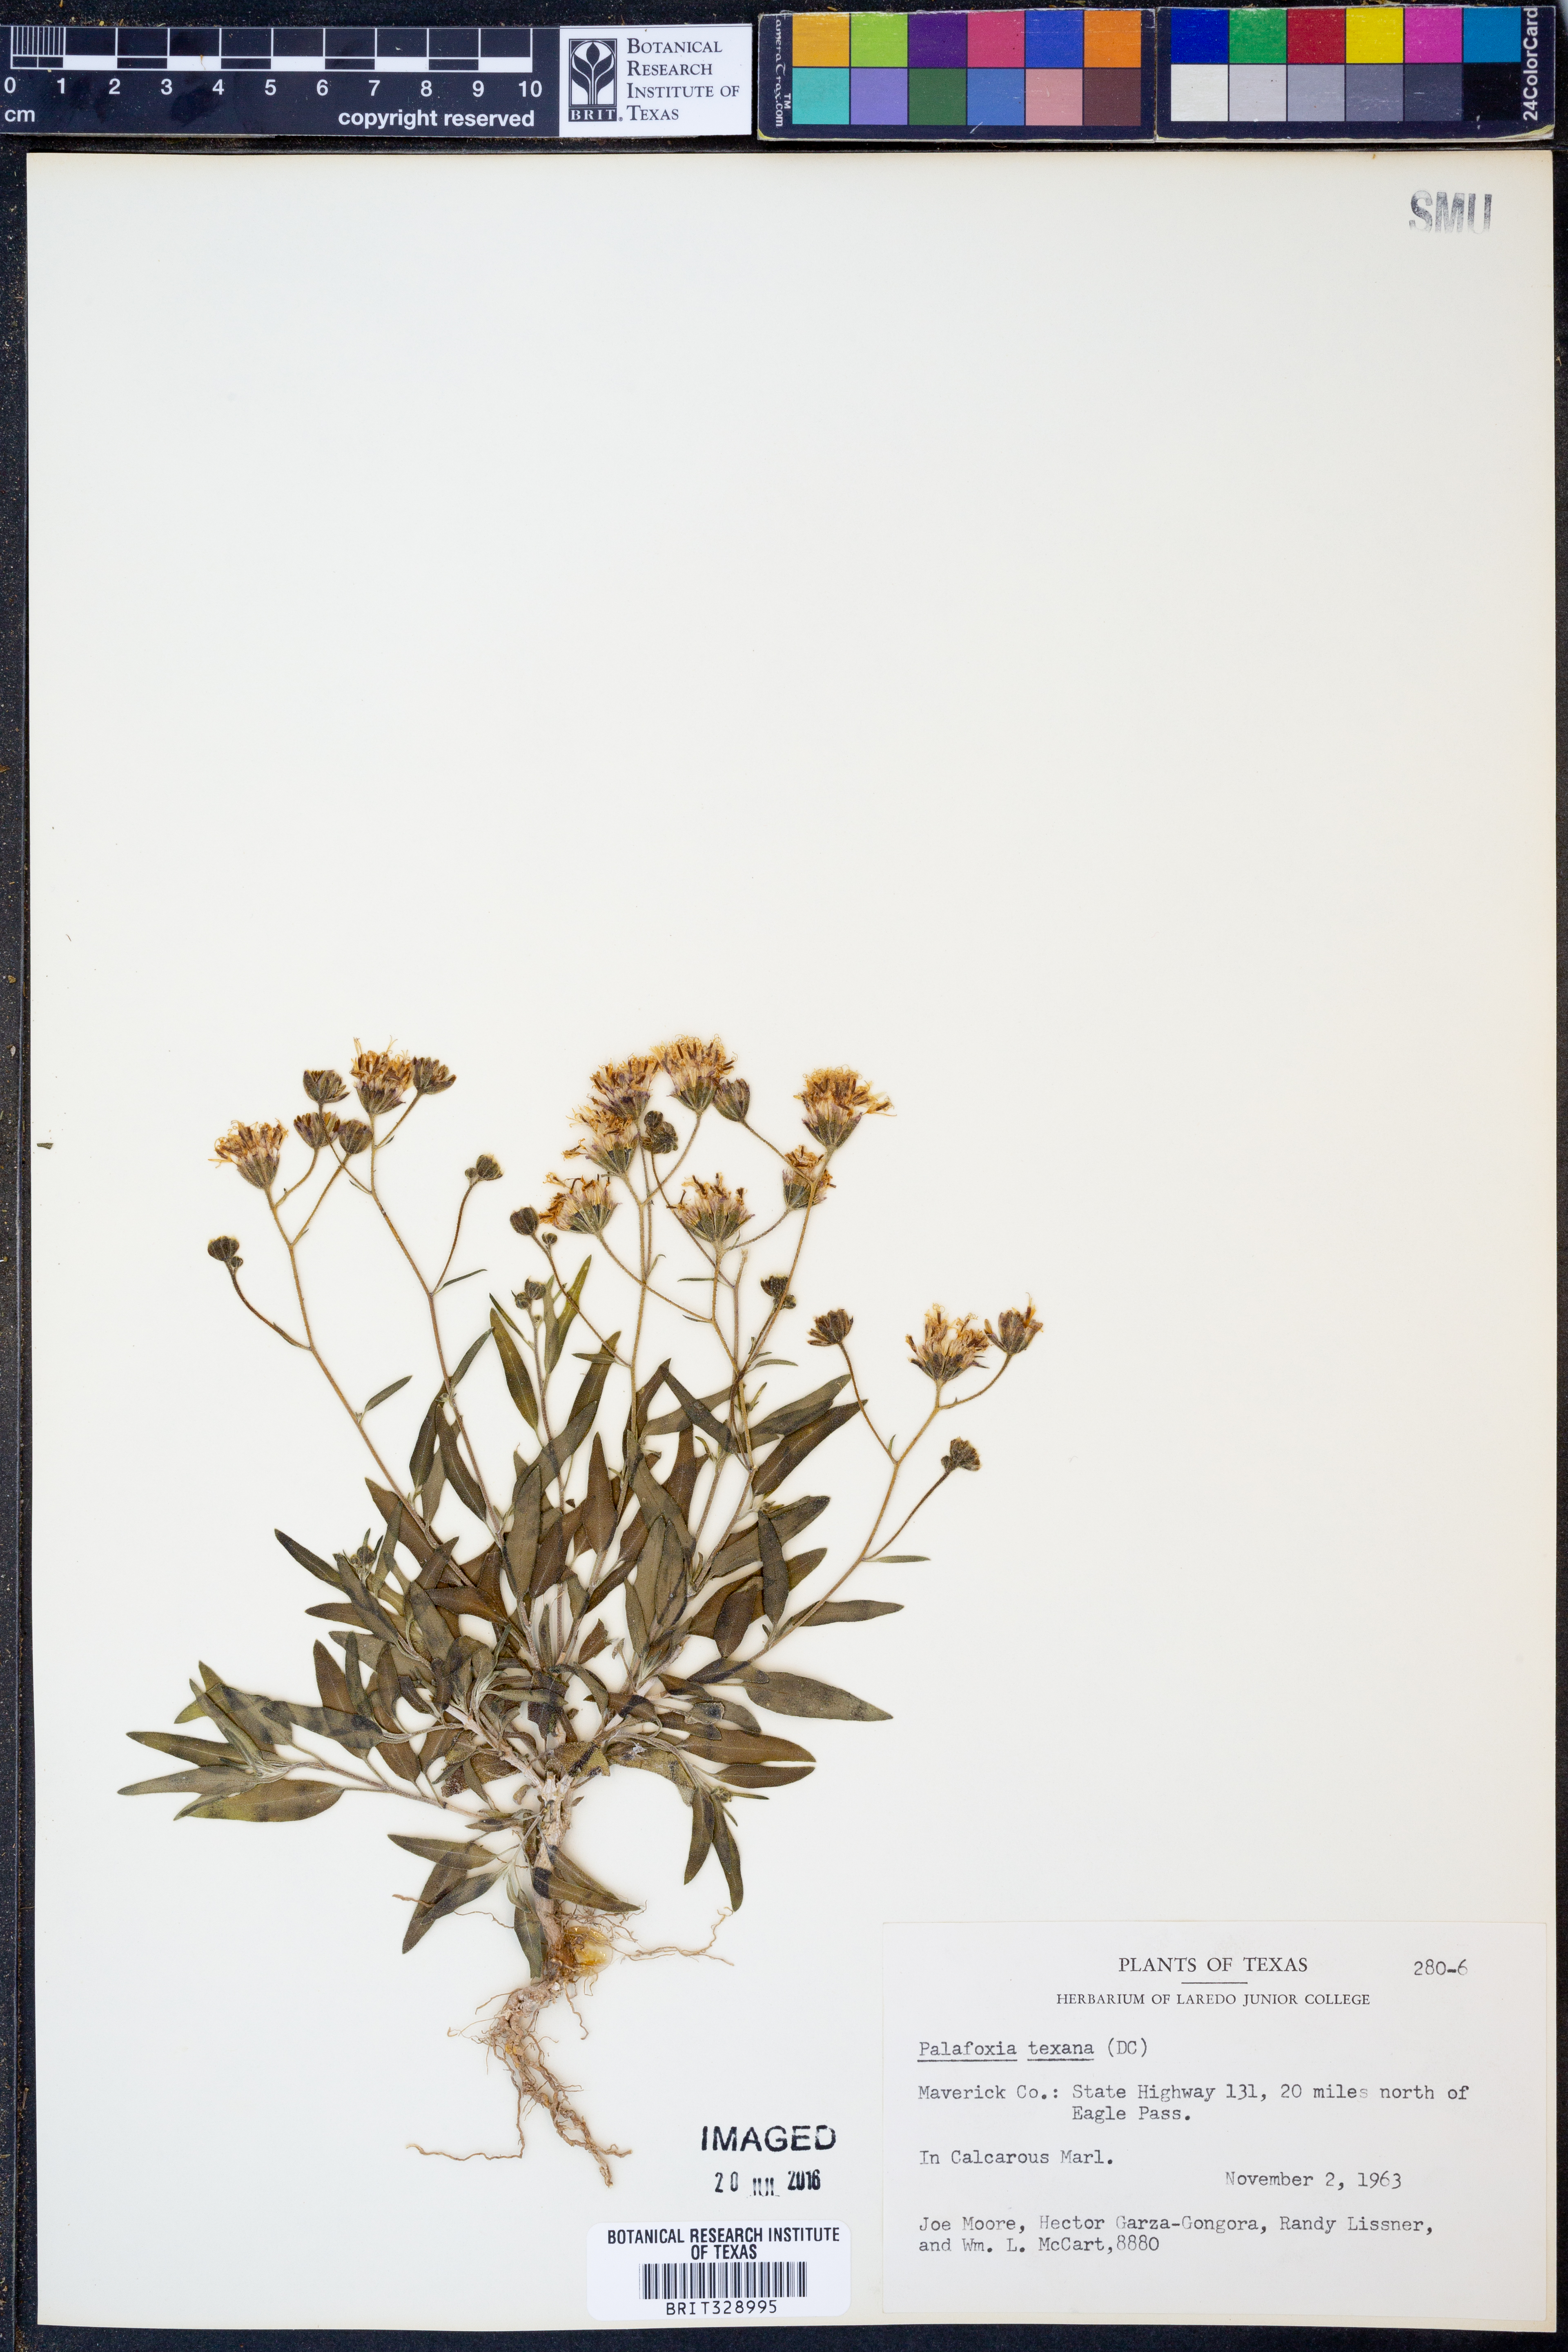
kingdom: Plantae
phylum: Tracheophyta
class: Magnoliopsida
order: Asterales
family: Asteraceae
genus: Palafoxia
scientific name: Palafoxia texana
